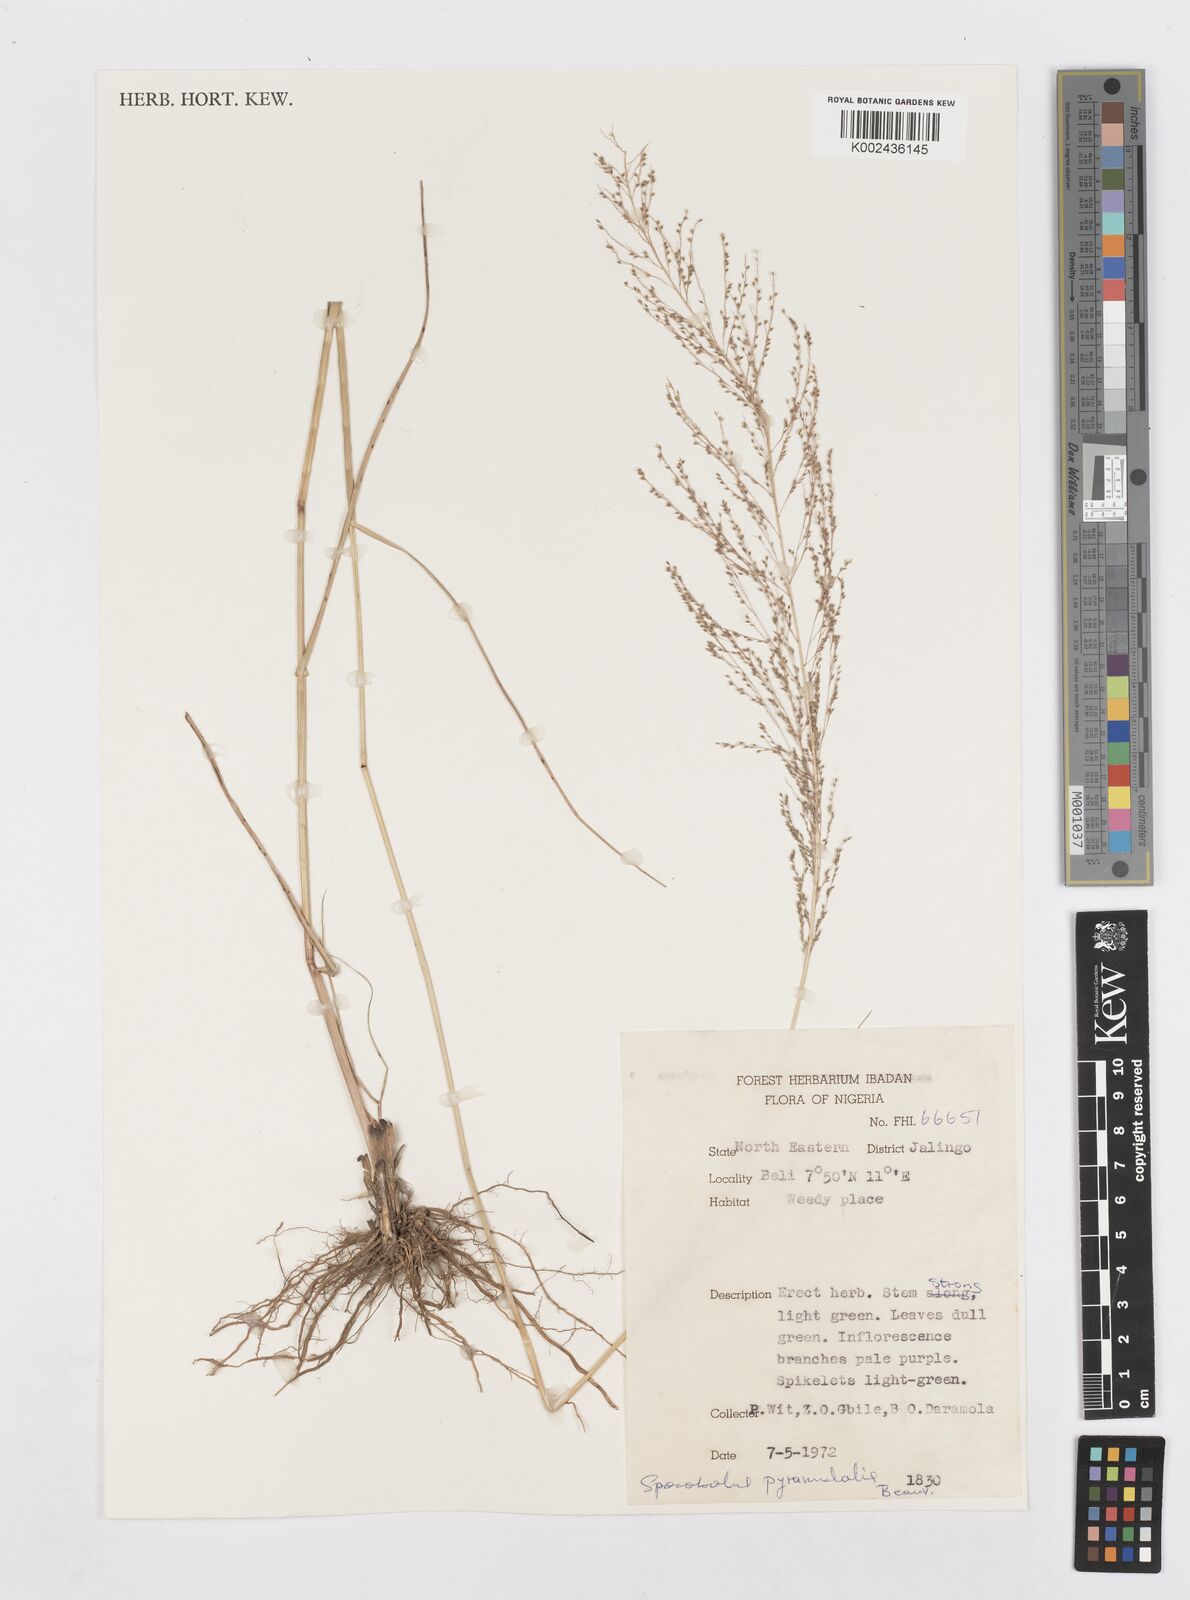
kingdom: Plantae
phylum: Tracheophyta
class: Liliopsida
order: Poales
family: Poaceae
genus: Sporobolus
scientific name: Sporobolus pyramidalis
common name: West indian dropseed
